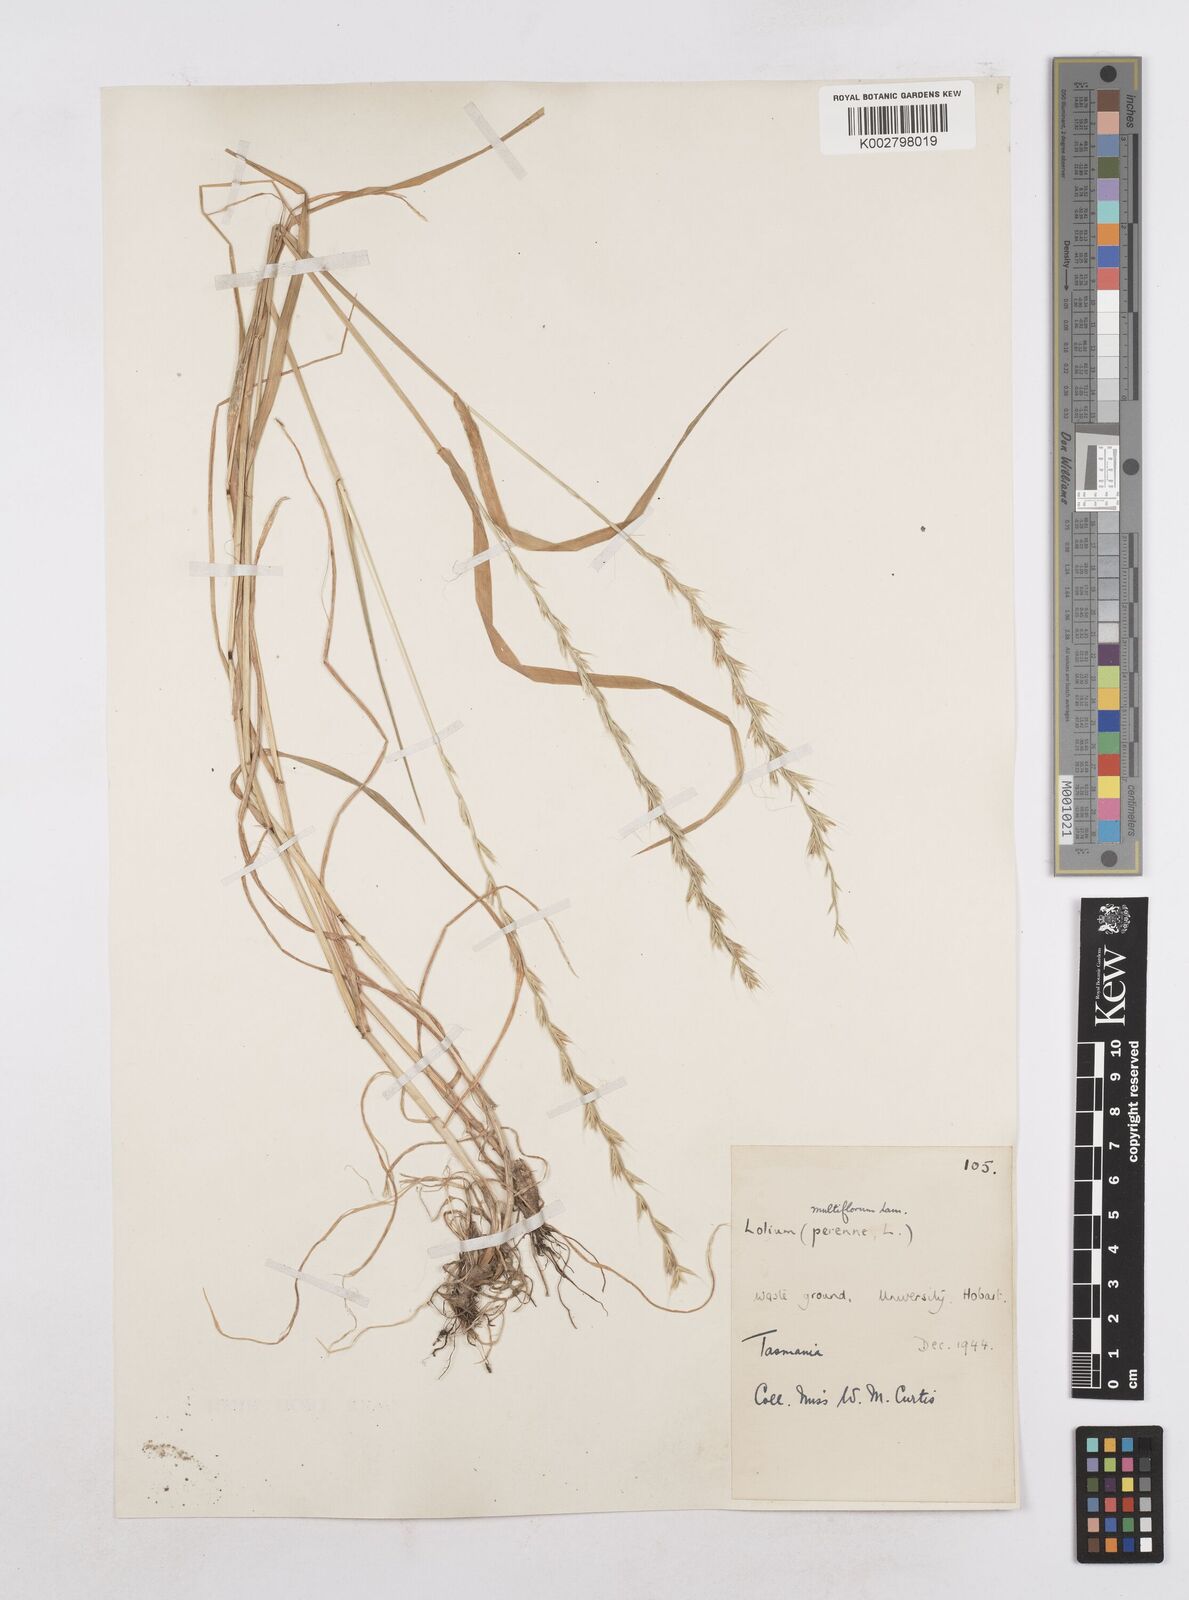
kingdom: Plantae
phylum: Tracheophyta
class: Liliopsida
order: Poales
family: Poaceae
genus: Lolium
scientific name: Lolium multiflorum
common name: Annual ryegrass
